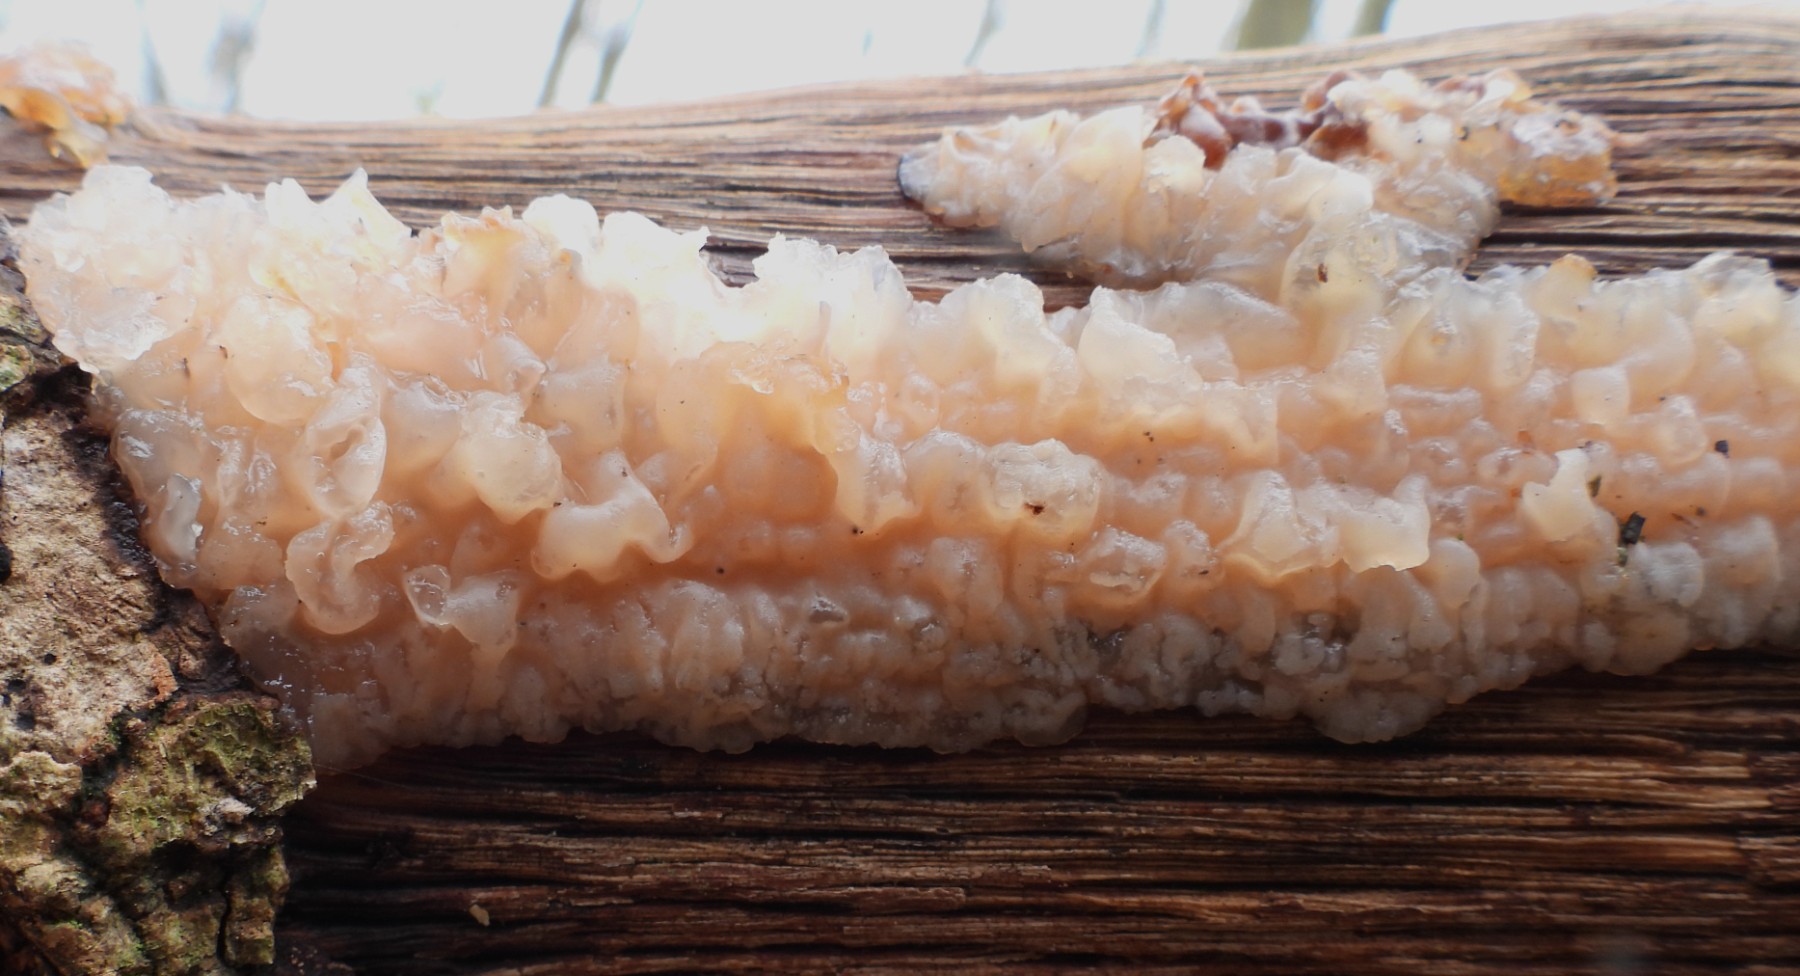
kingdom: Fungi
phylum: Basidiomycota
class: Agaricomycetes
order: Auriculariales
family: Auriculariaceae
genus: Exidia
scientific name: Exidia thuretiana
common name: hvidlig bævretop
